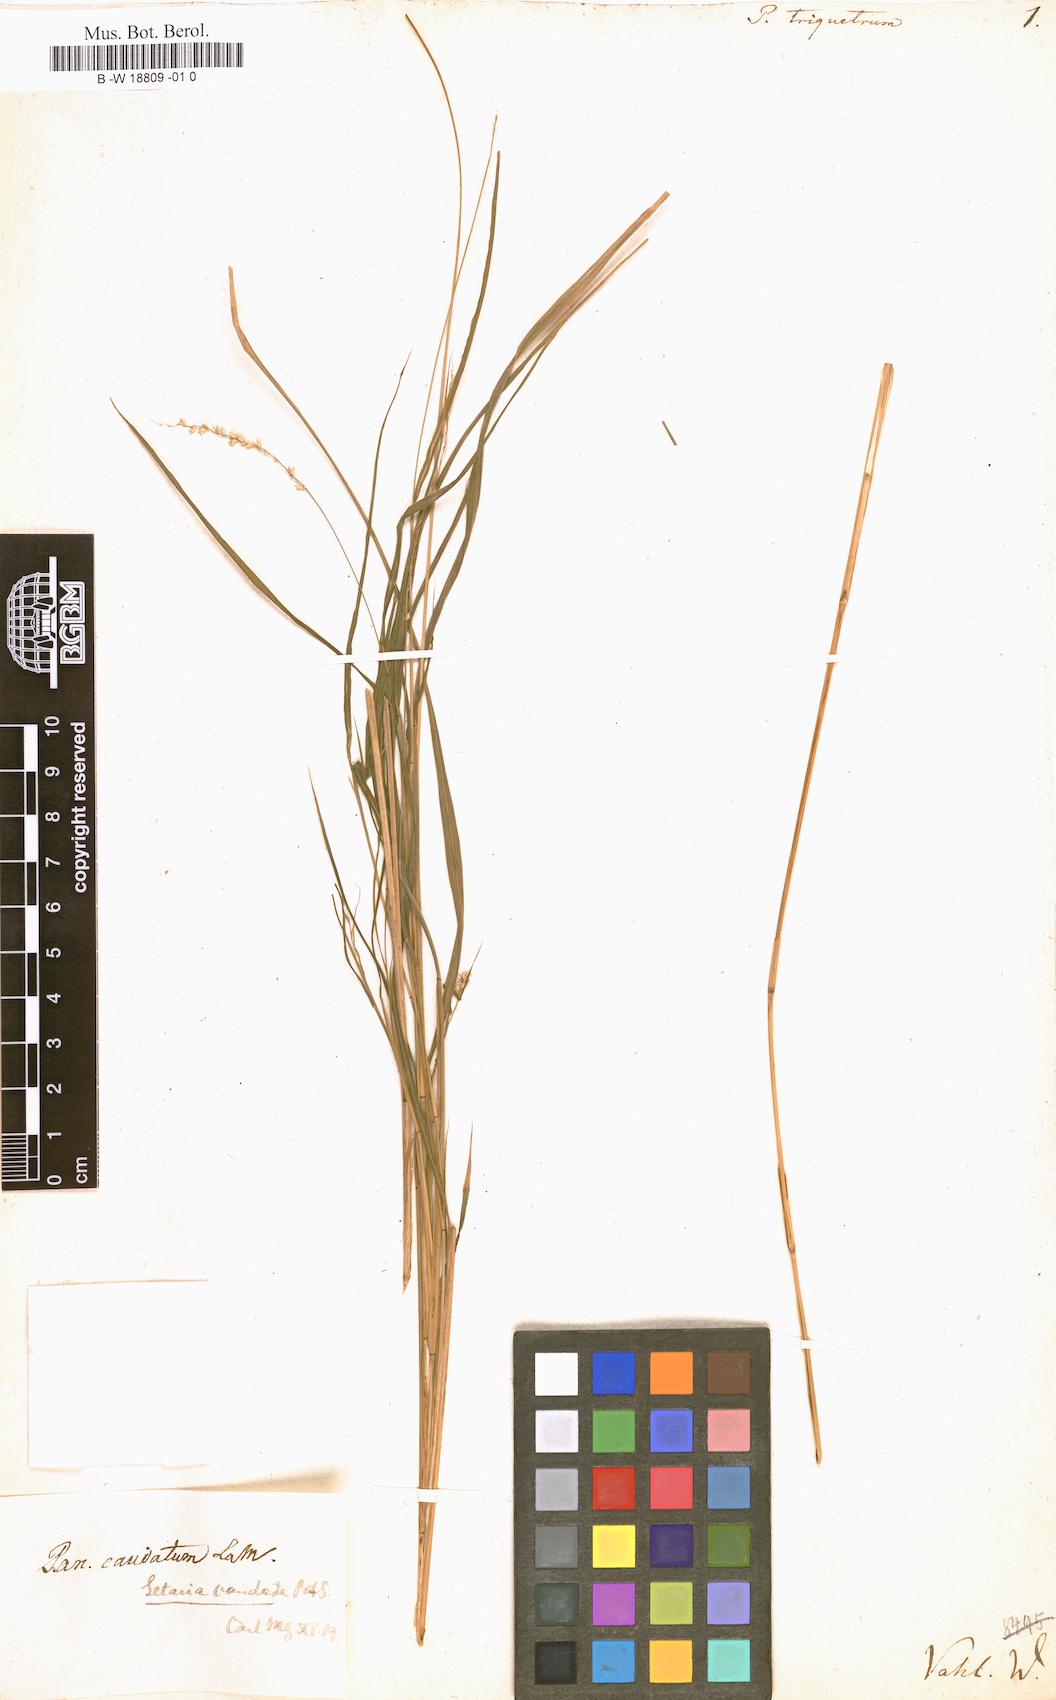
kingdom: Plantae
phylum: Tracheophyta
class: Liliopsida
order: Poales
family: Poaceae
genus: Setaria
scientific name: Setaria setosa
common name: West indies bristle grass
